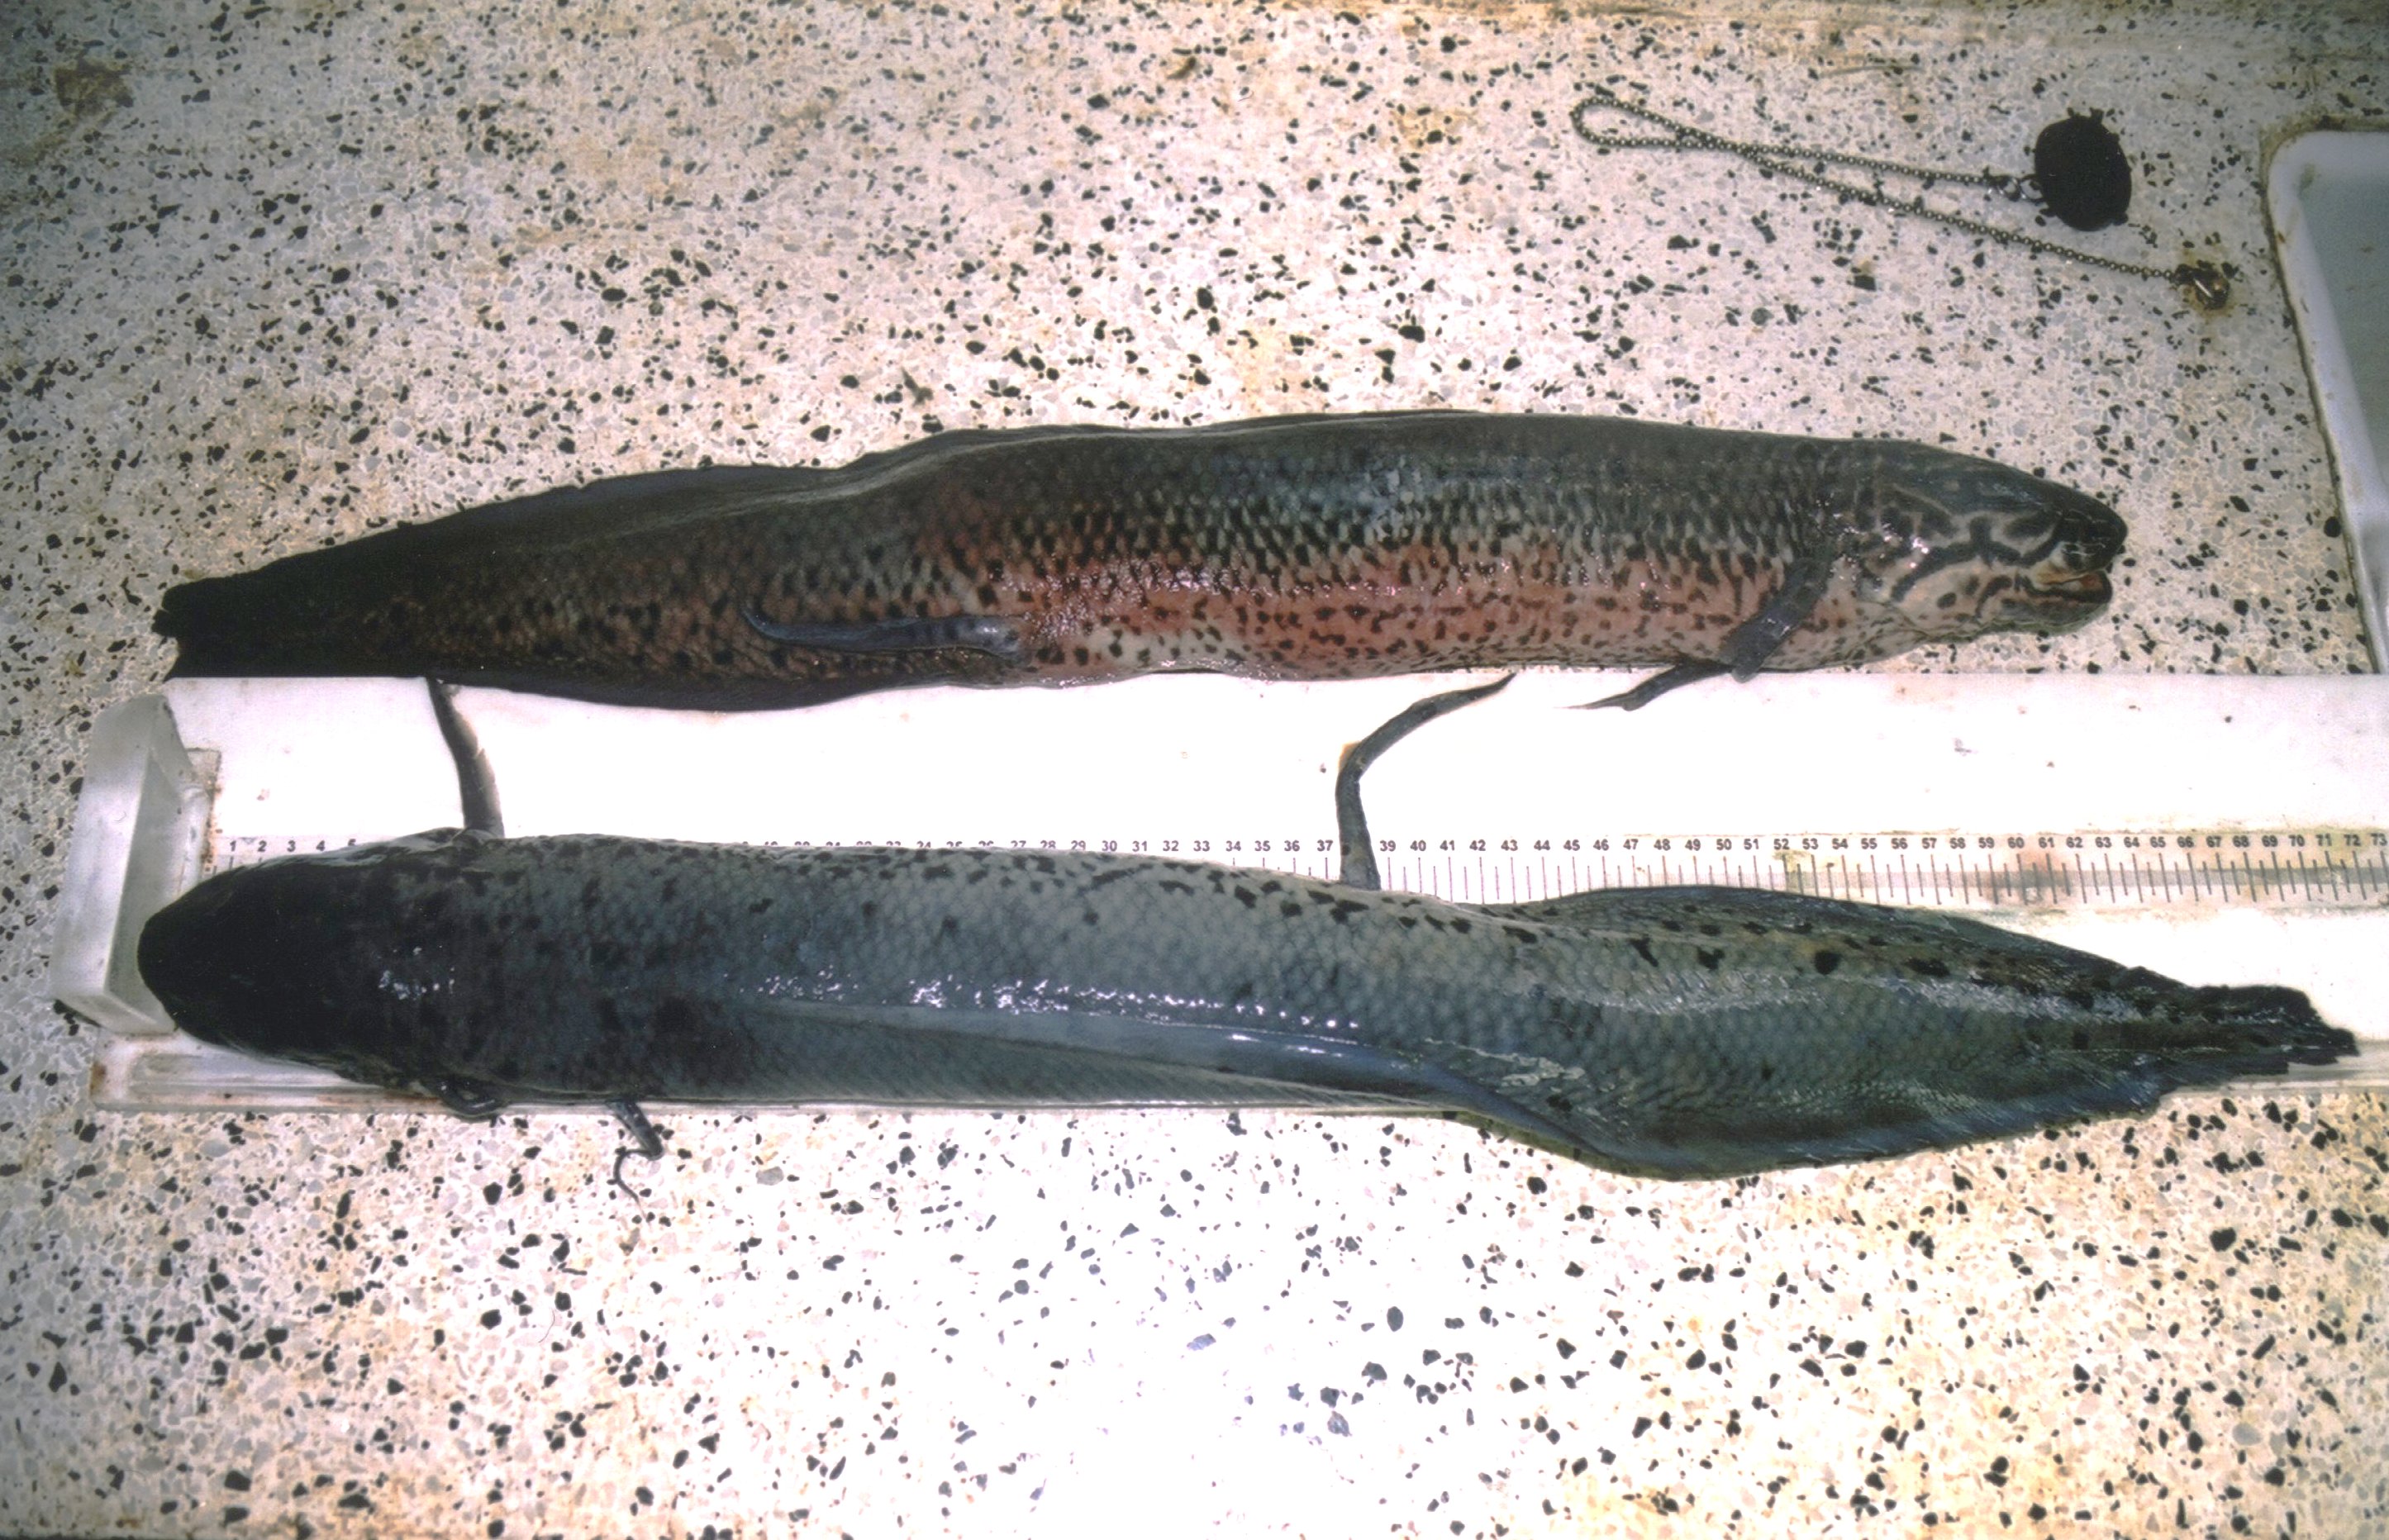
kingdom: Animalia
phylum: Chordata
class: Dipneusti
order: Ceratodontiformes
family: Protopteridae
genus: Protopterus
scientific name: Protopterus annectens
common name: Lungfish
